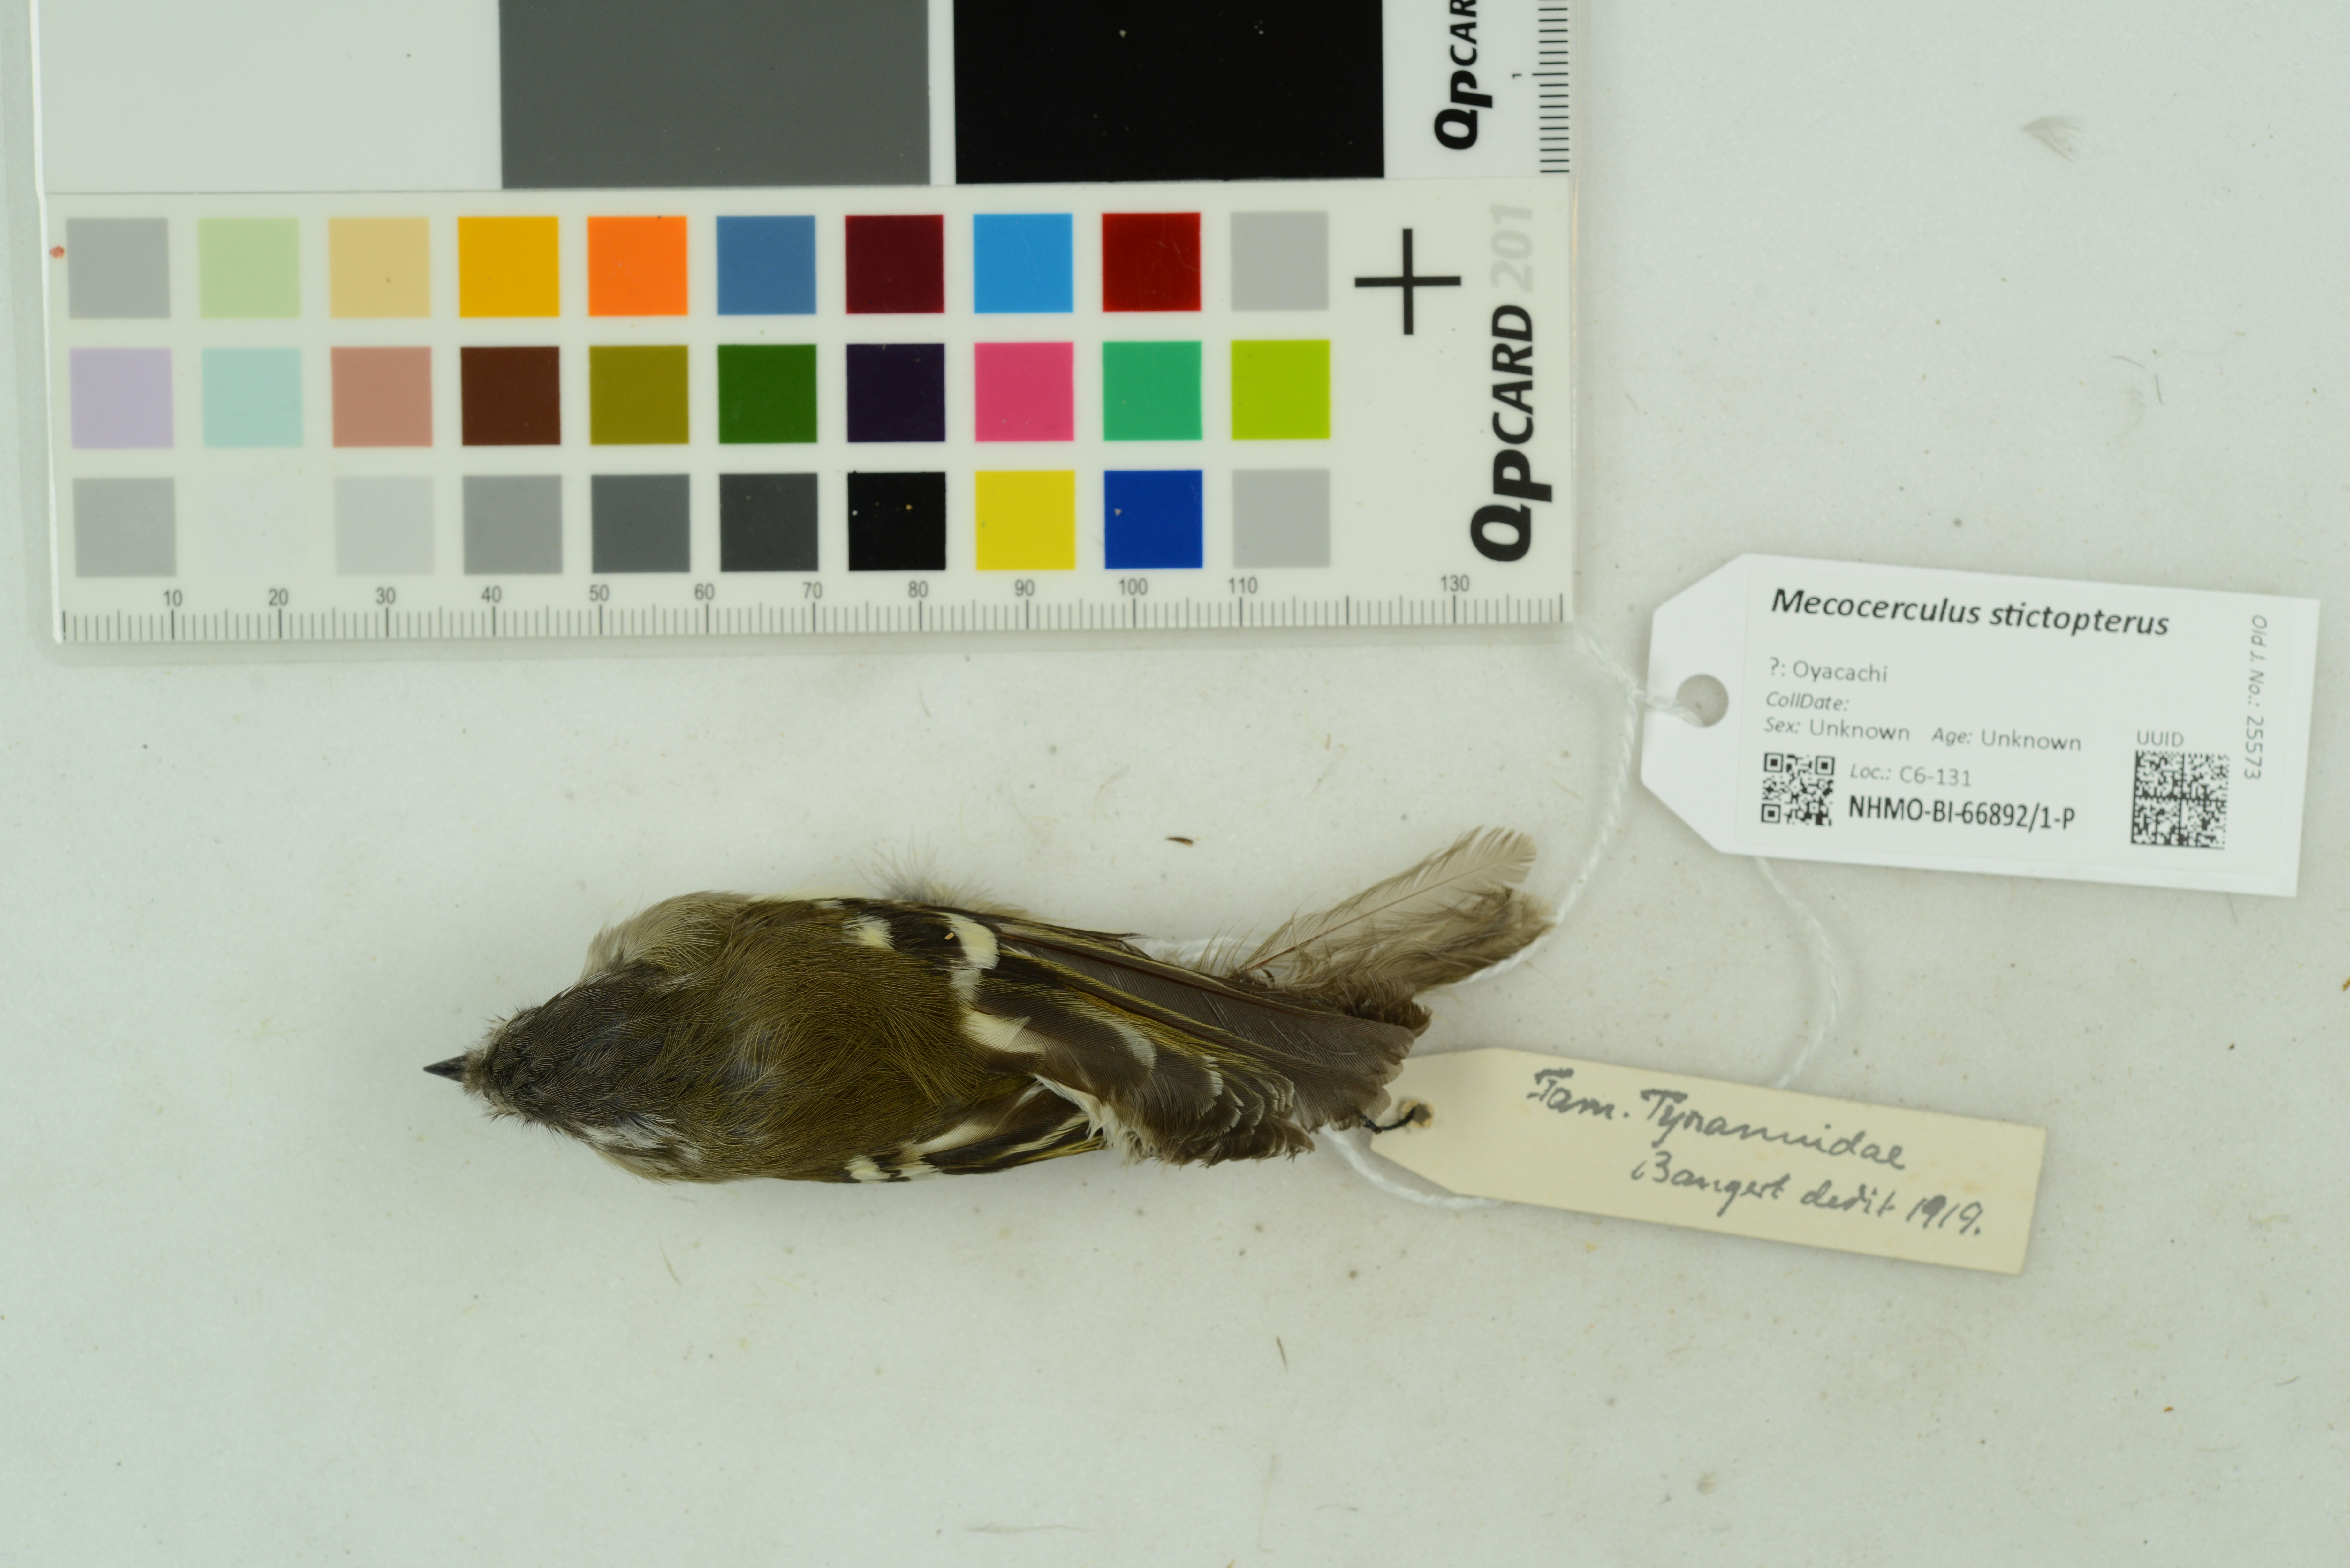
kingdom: Animalia
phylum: Chordata
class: Aves
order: Passeriformes
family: Tyrannidae
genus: Mecocerculus
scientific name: Mecocerculus stictopterus
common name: White-banded tyrannulet
